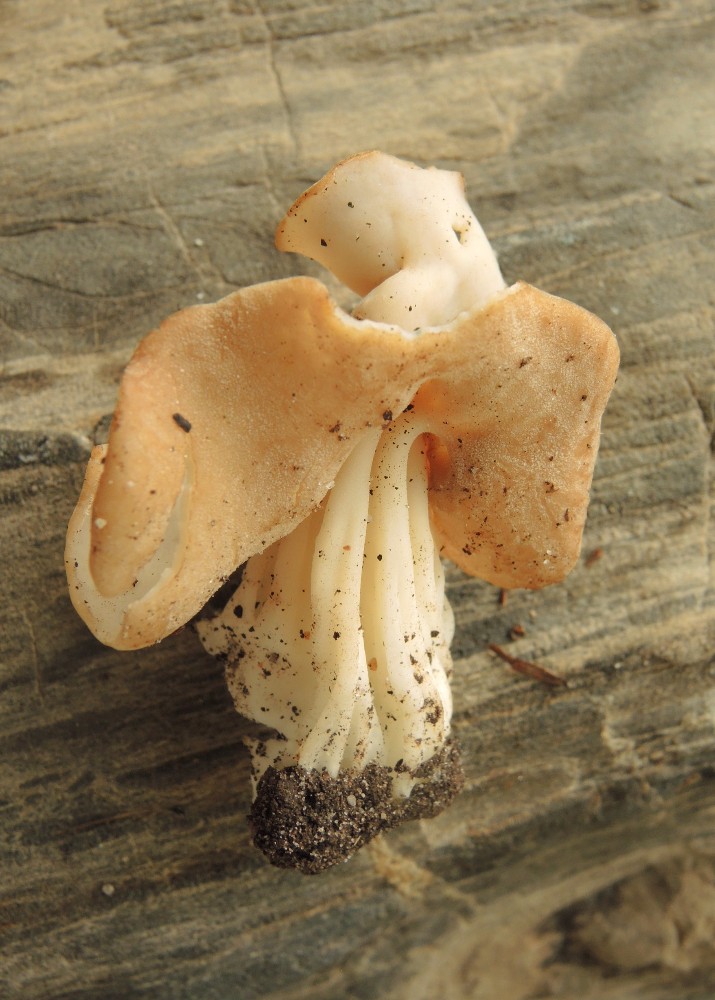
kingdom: Fungi
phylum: Ascomycota
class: Pezizomycetes
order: Pezizales
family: Helvellaceae
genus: Helvella
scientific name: Helvella crispa
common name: kruset foldhat
